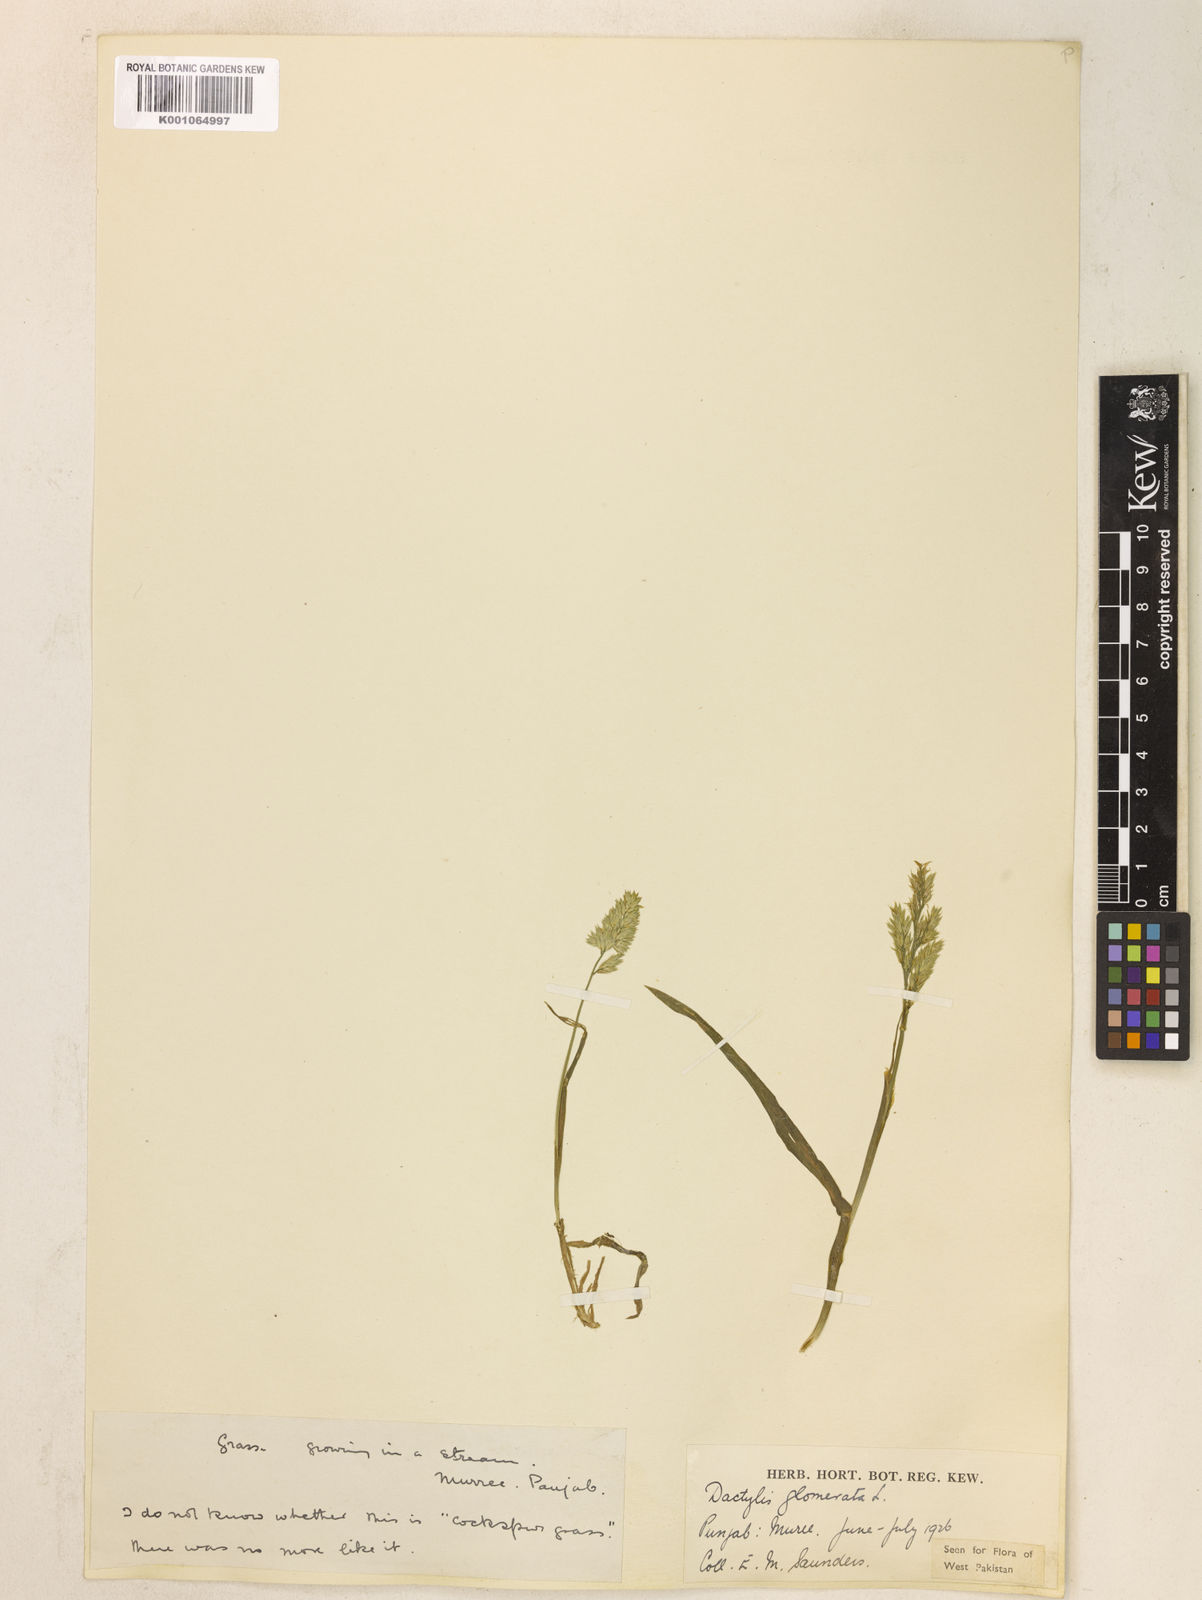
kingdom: Plantae
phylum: Tracheophyta
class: Liliopsida
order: Poales
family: Poaceae
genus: Dactylis
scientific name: Dactylis glomerata
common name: Orchardgrass
